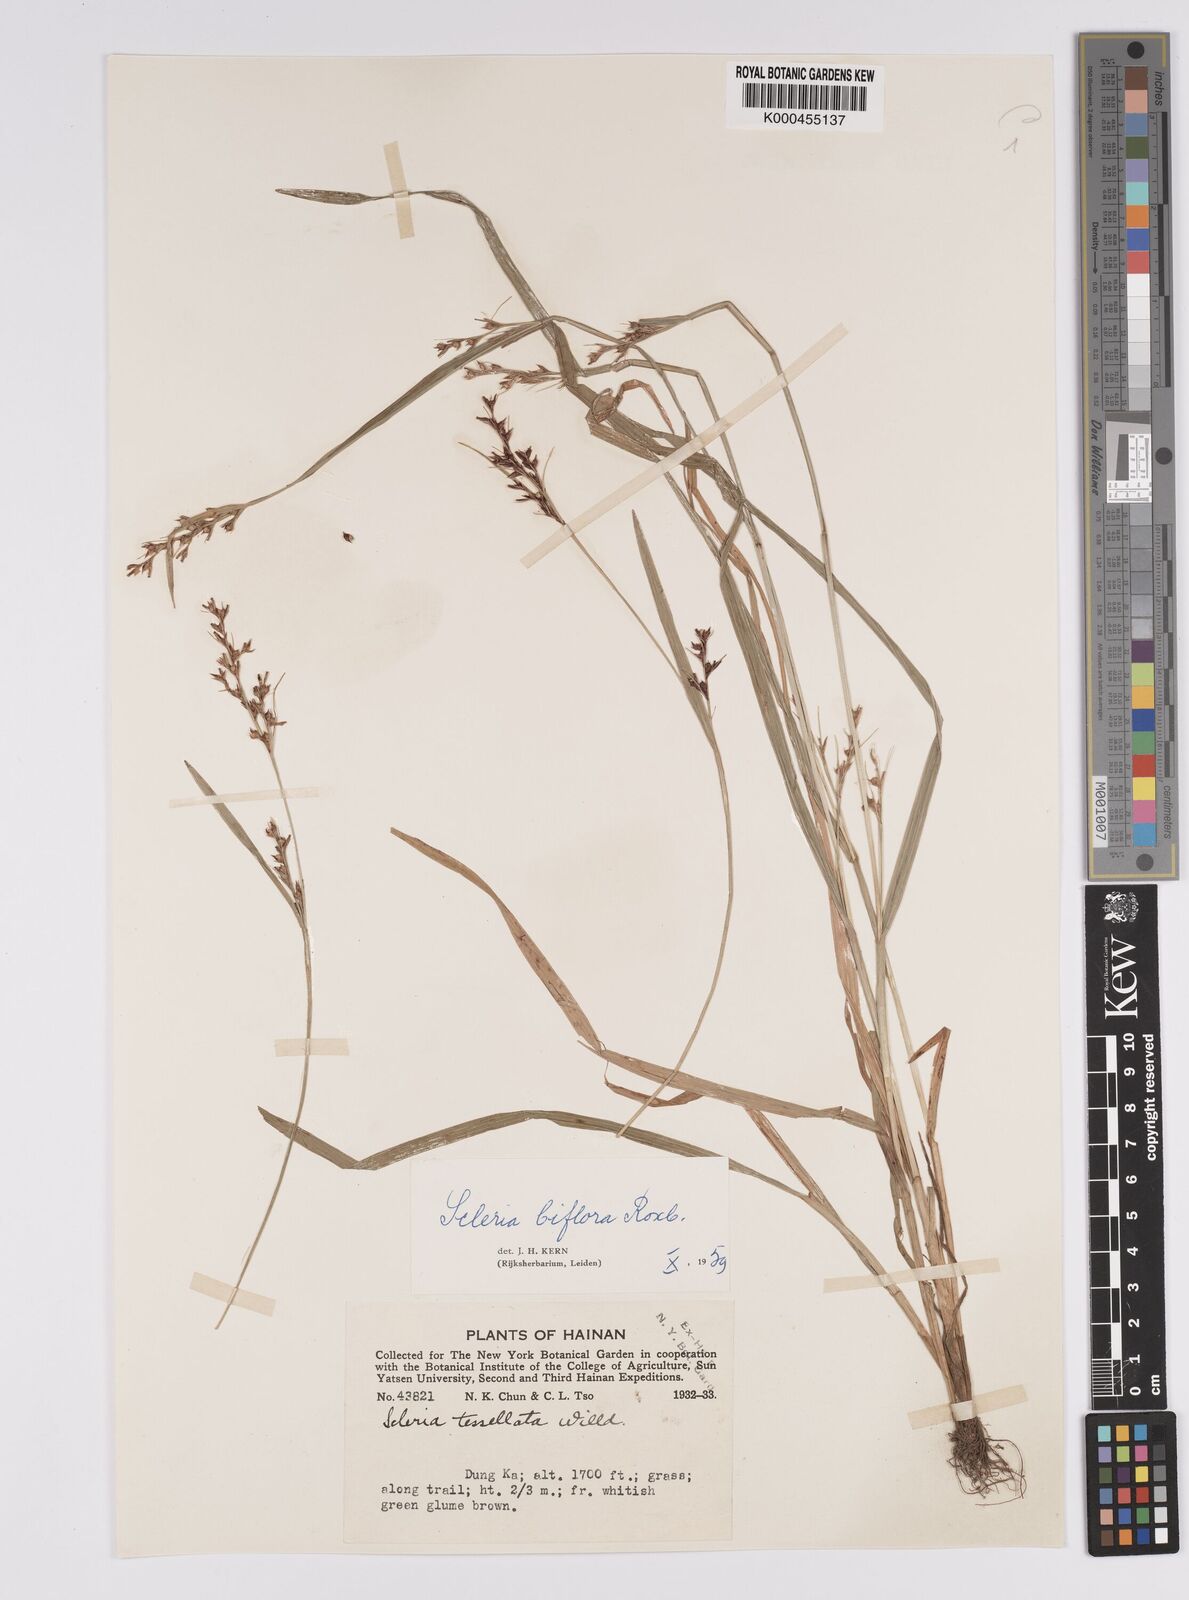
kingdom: Plantae
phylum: Tracheophyta
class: Liliopsida
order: Poales
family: Cyperaceae
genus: Scleria
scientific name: Scleria biflora
